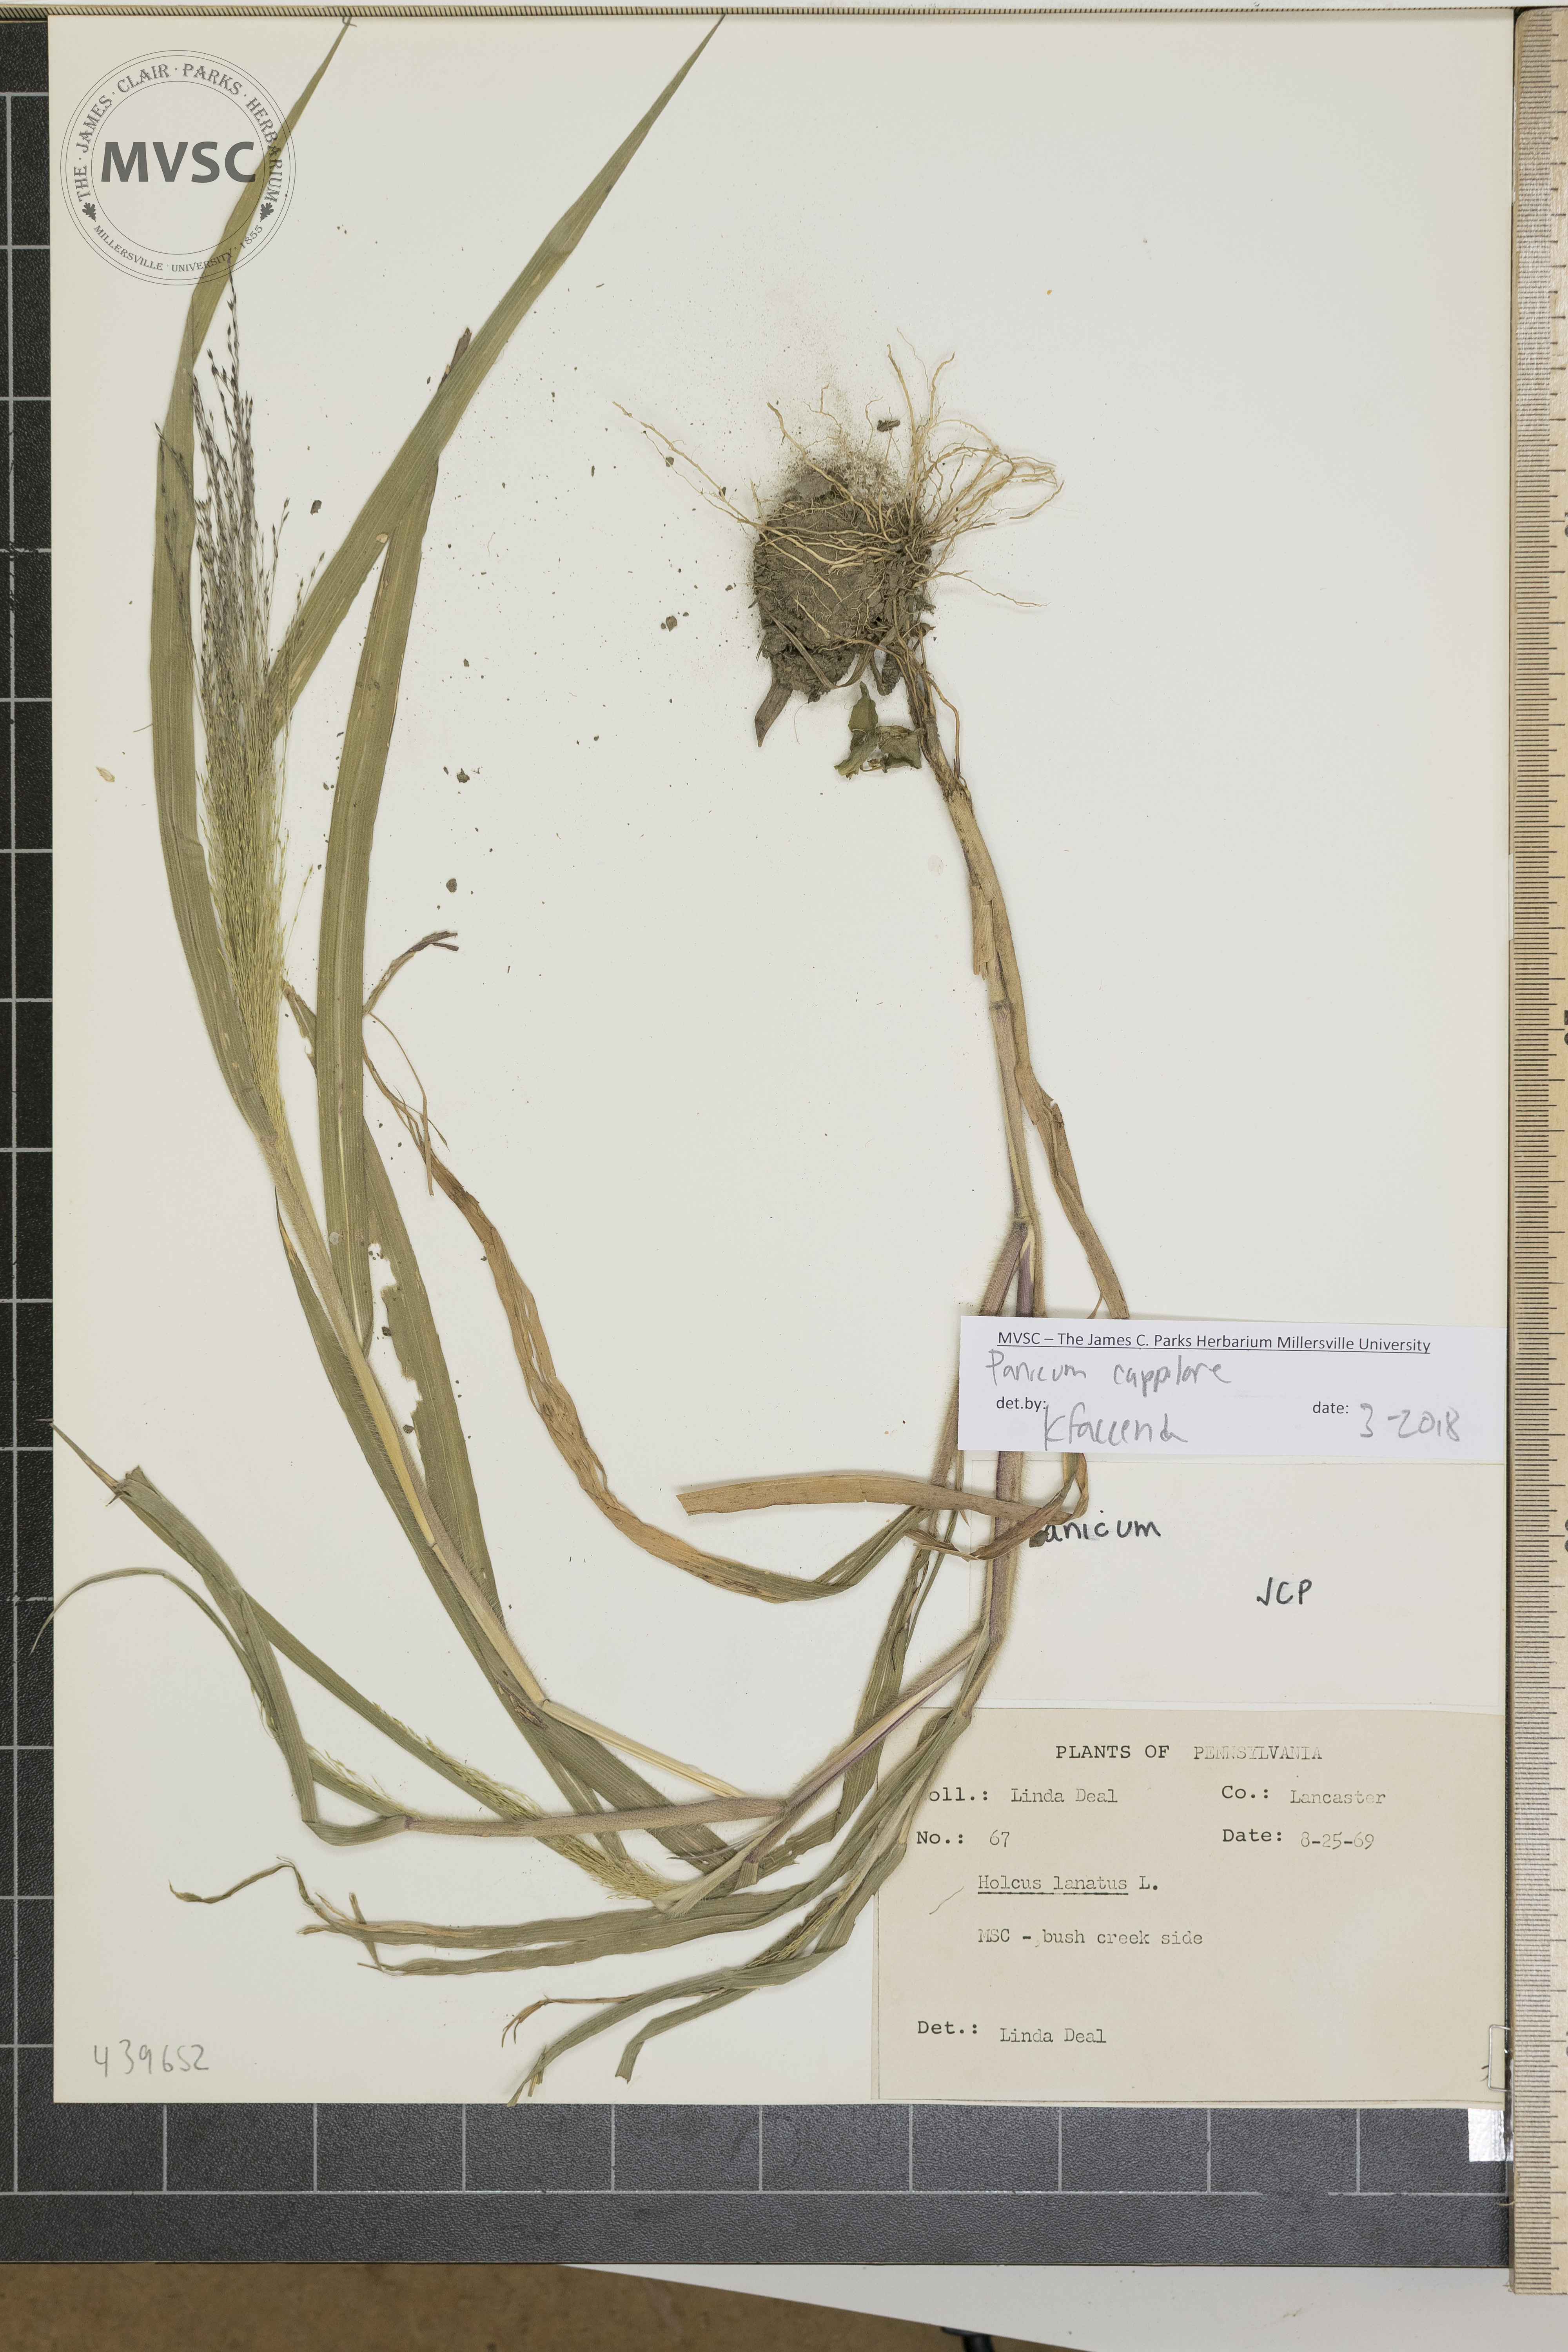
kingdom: Plantae
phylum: Tracheophyta
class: Liliopsida
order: Poales
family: Poaceae
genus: Panicum
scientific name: Panicum capillare
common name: Witch-grass
